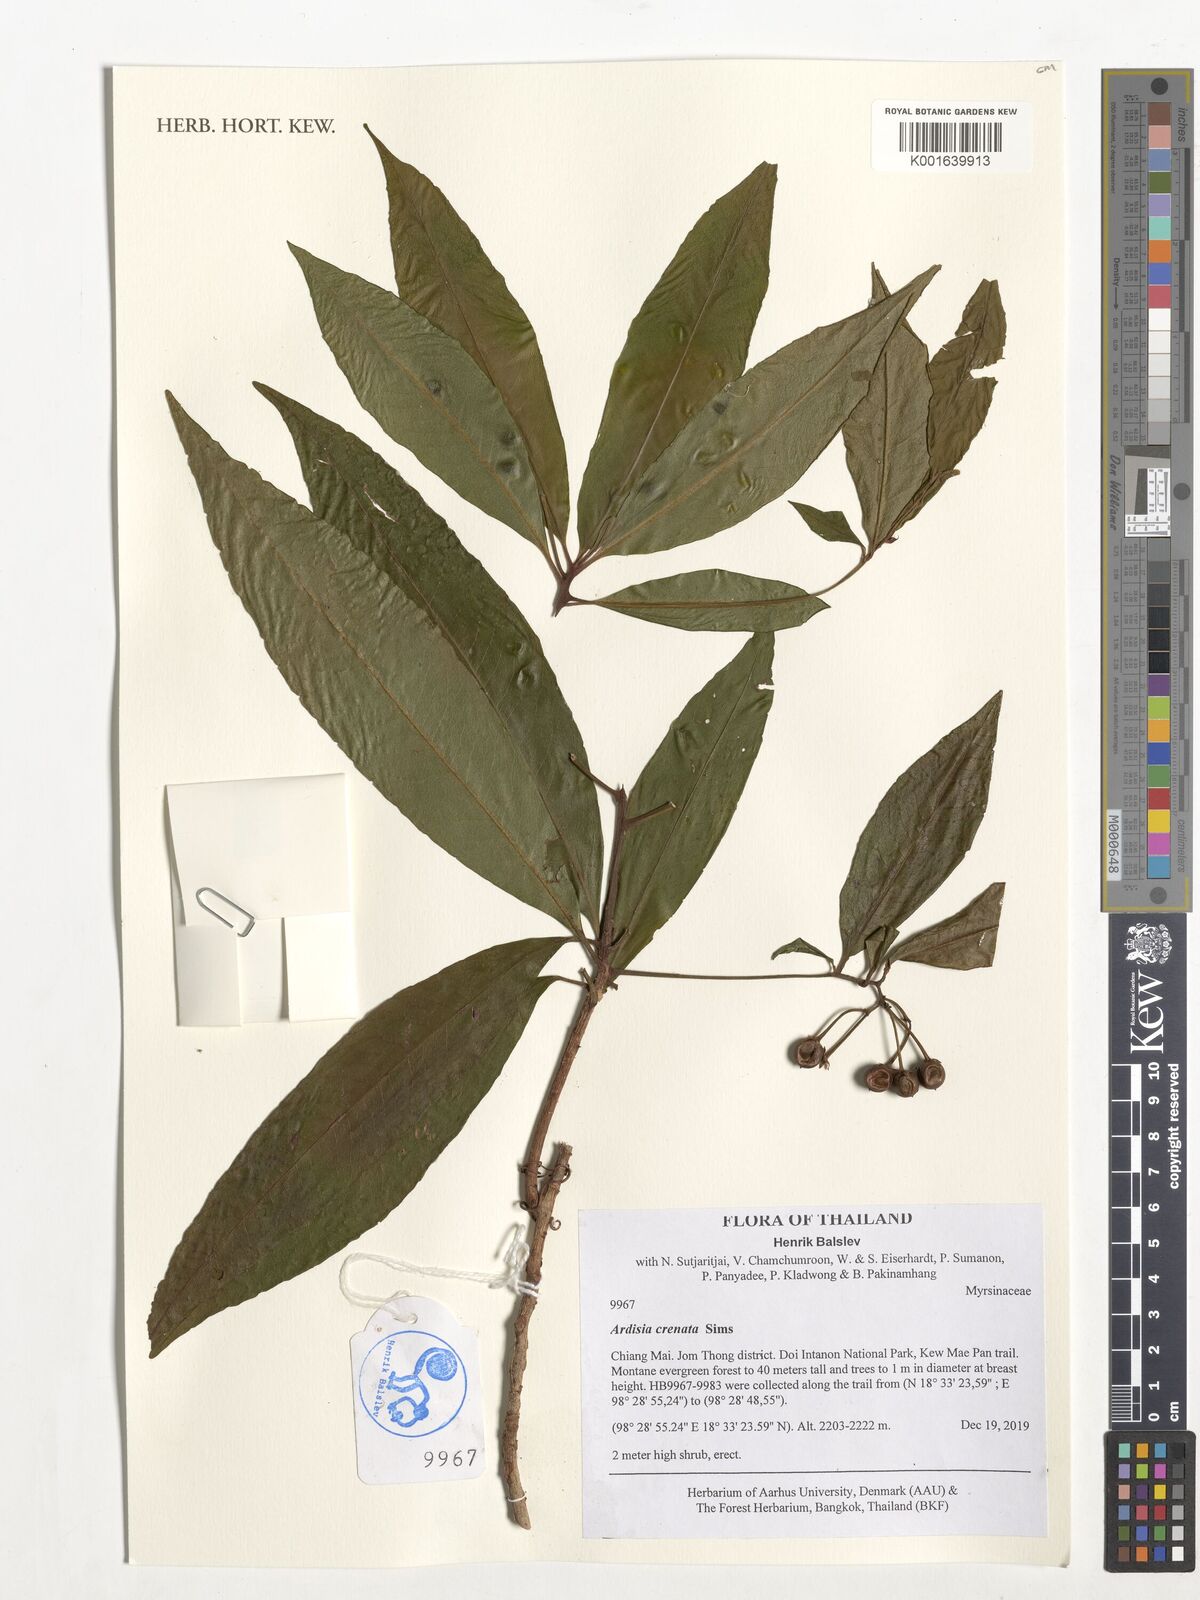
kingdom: Plantae
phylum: Tracheophyta
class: Magnoliopsida
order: Ericales
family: Primulaceae
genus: Ardisia
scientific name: Ardisia crenata
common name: Hen's eyes
